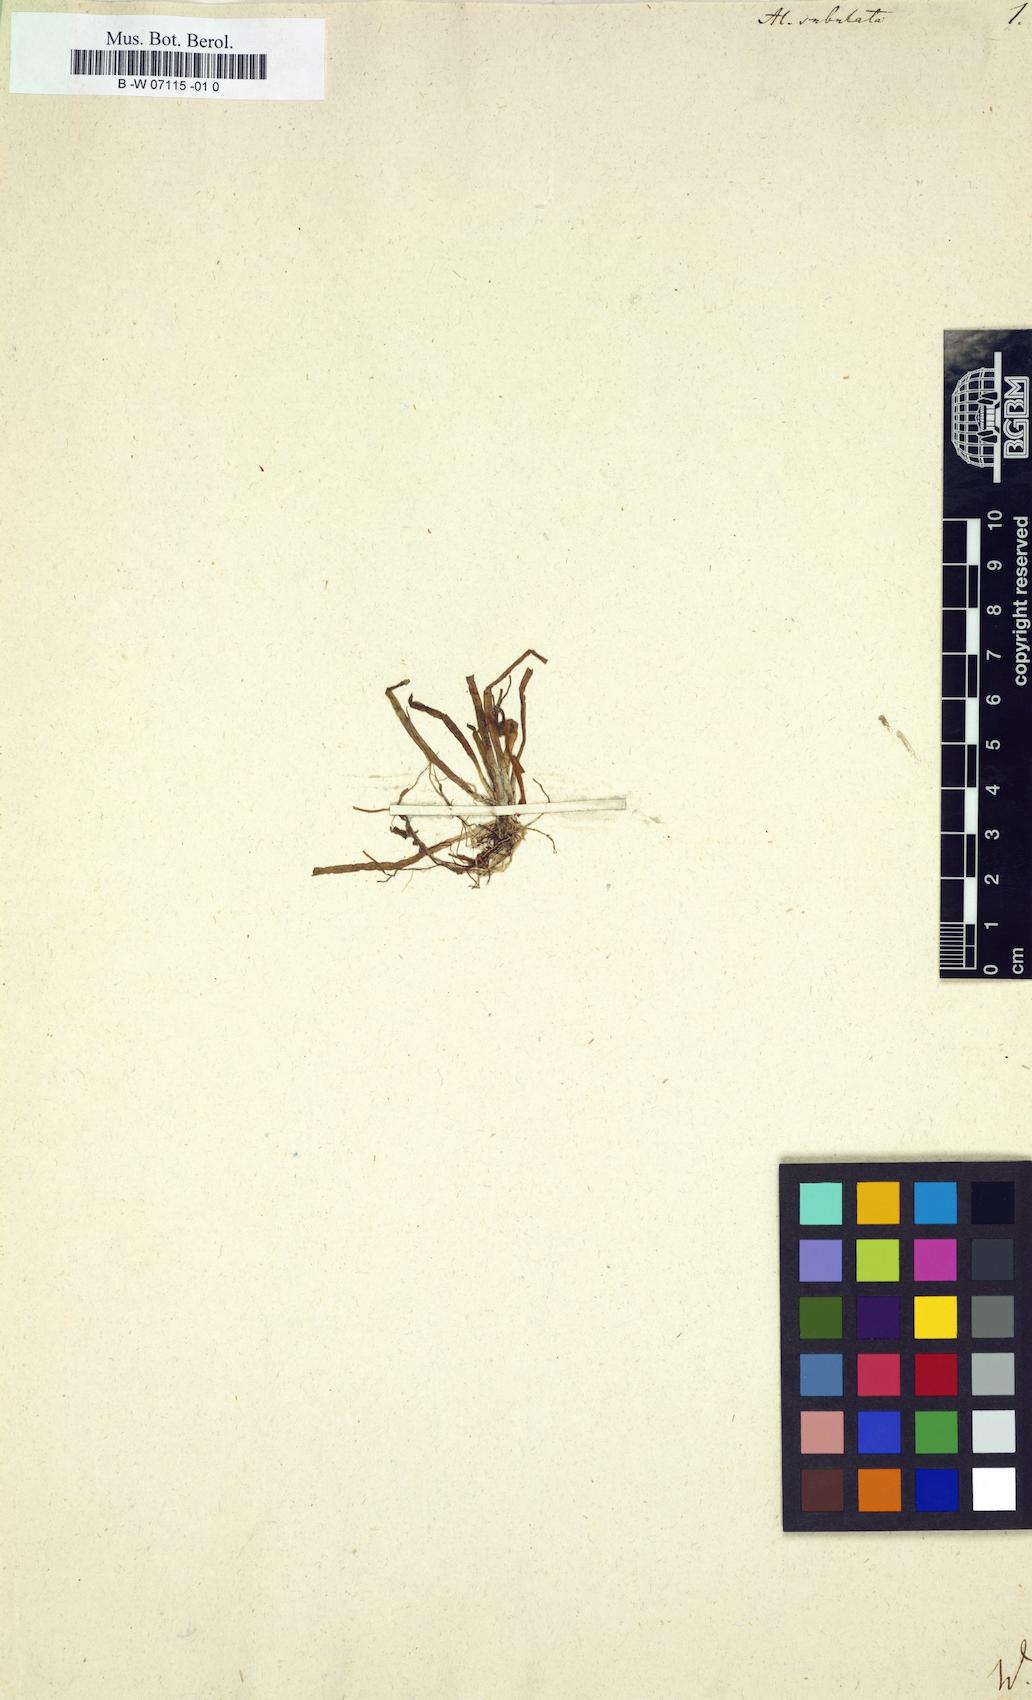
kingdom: Plantae
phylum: Tracheophyta
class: Liliopsida
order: Alismatales
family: Alismataceae
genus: Alisma
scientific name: Alisma subulatum
